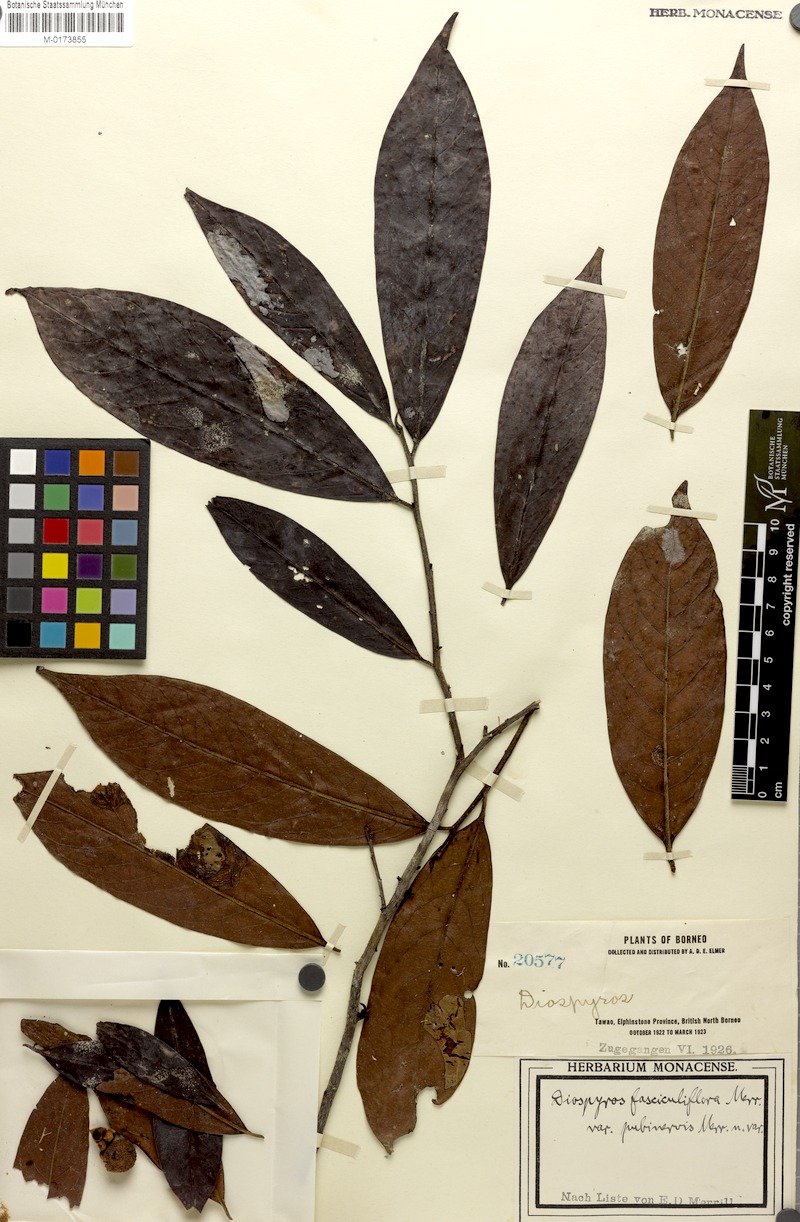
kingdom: Plantae
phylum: Tracheophyta
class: Magnoliopsida
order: Ericales
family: Ebenaceae
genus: Diospyros
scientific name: Diospyros cauliflora
